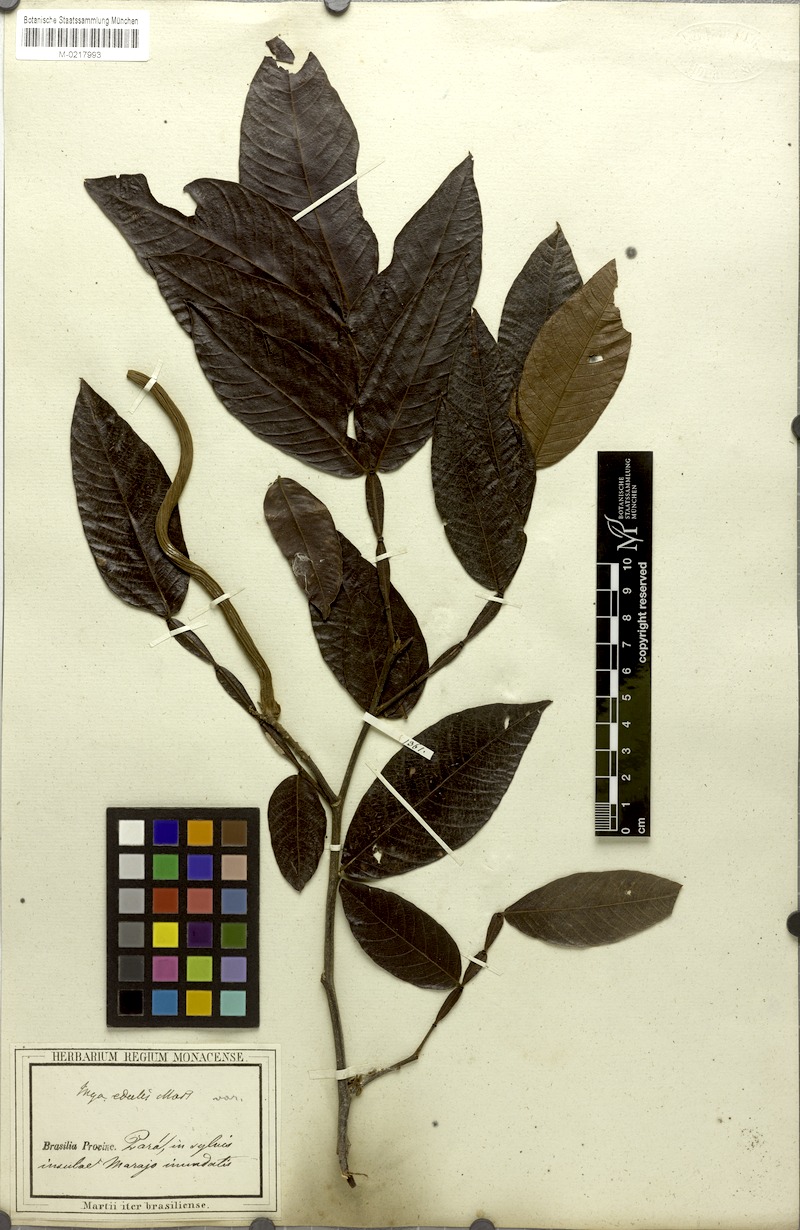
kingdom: Plantae
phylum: Tracheophyta
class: Magnoliopsida
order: Fabales
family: Fabaceae
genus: Inga
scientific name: Inga edulis
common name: Ice cream bean
